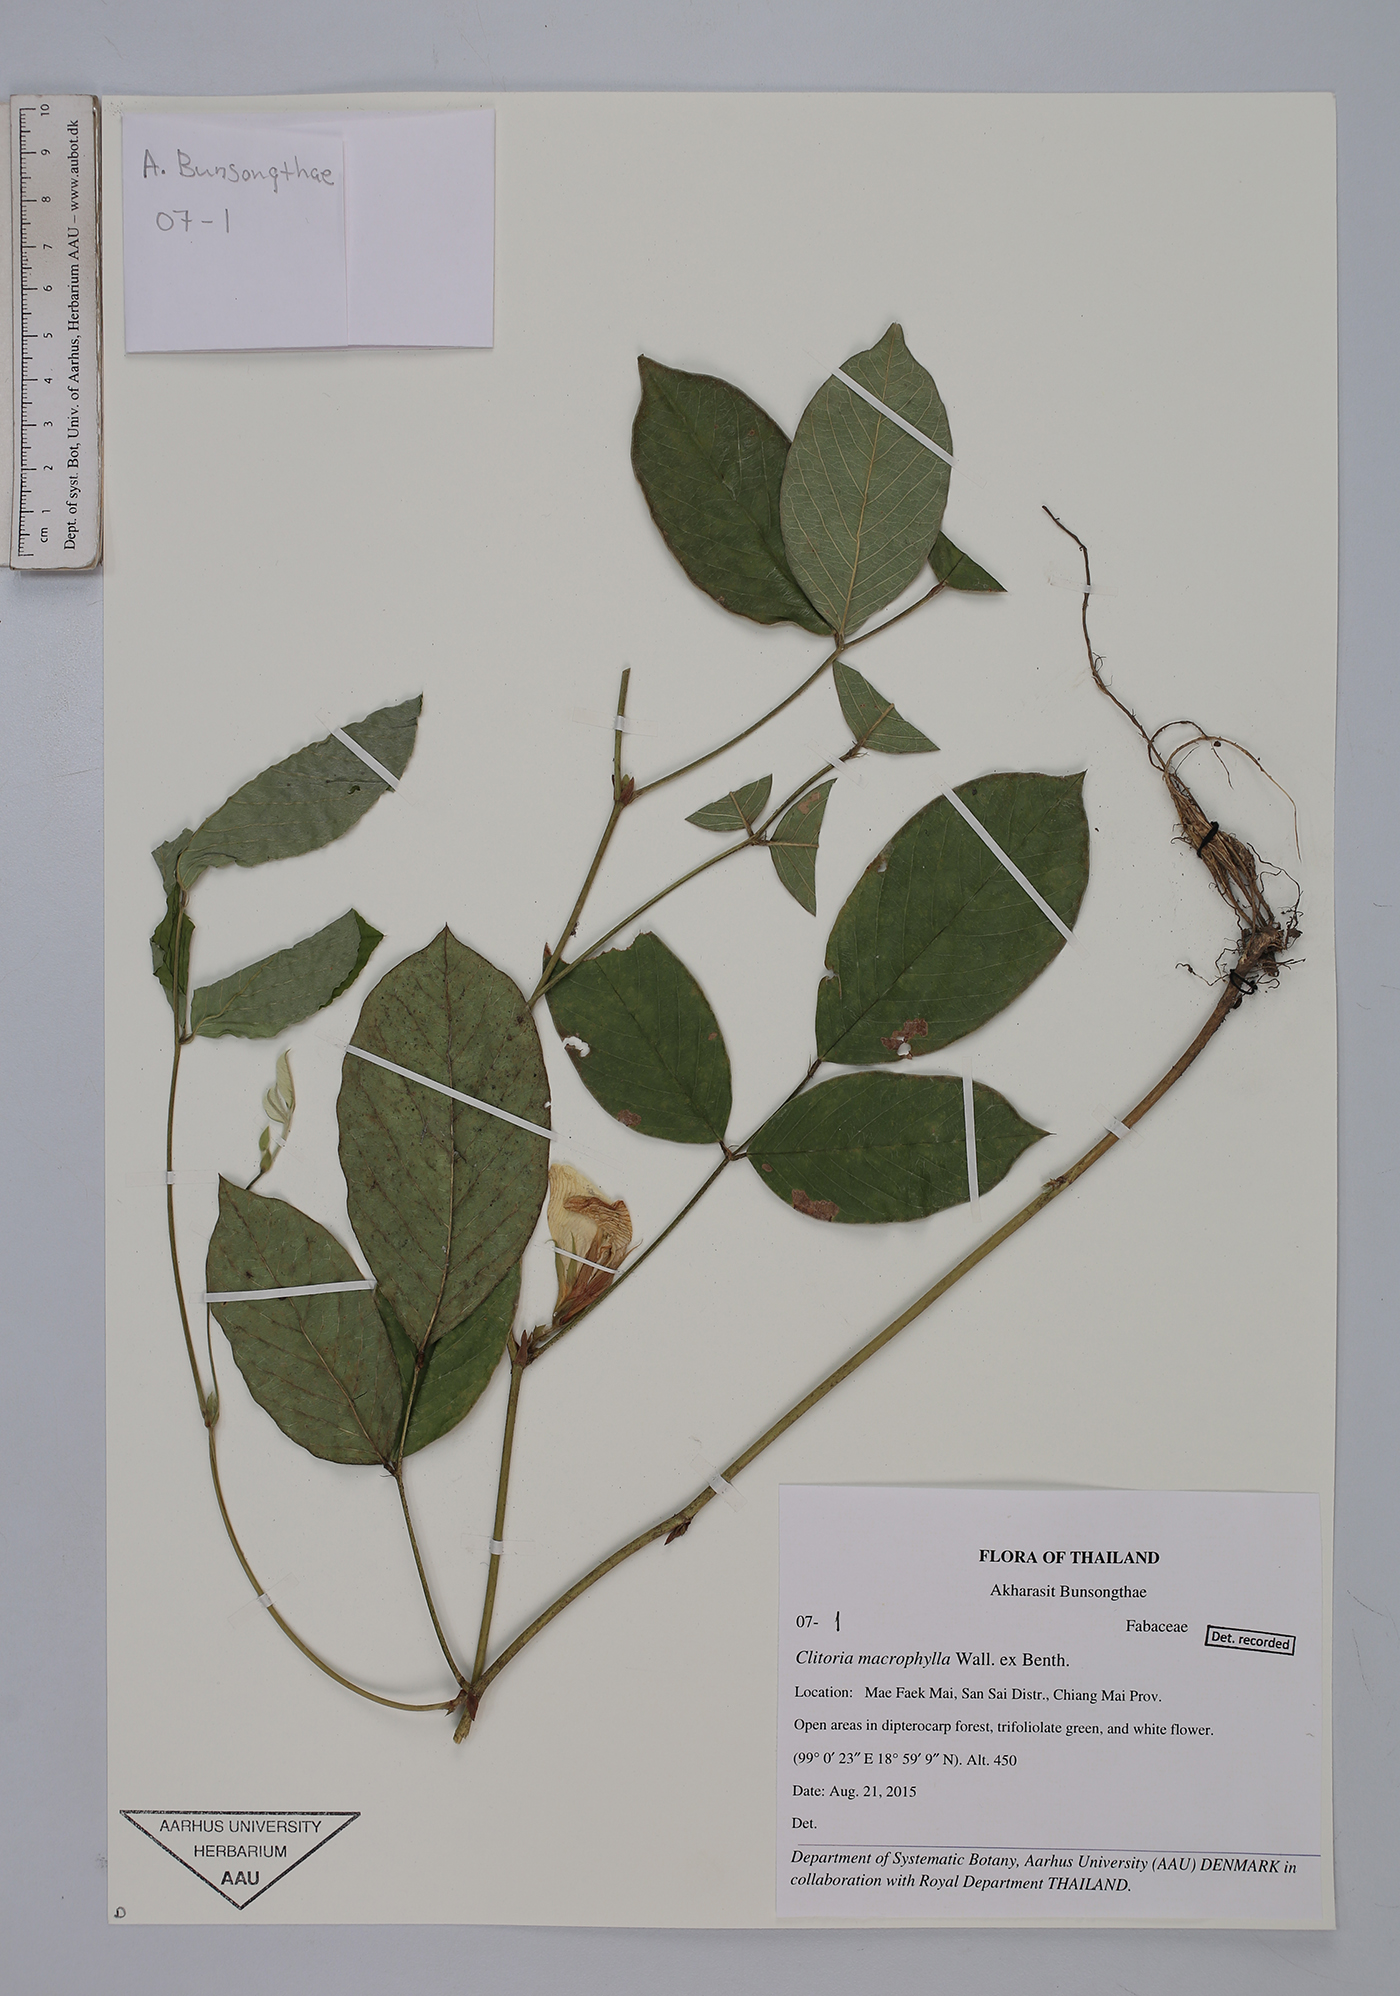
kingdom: Plantae
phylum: Tracheophyta
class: Magnoliopsida
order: Fabales
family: Fabaceae
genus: Clitoria
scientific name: Clitoria macrophylla
